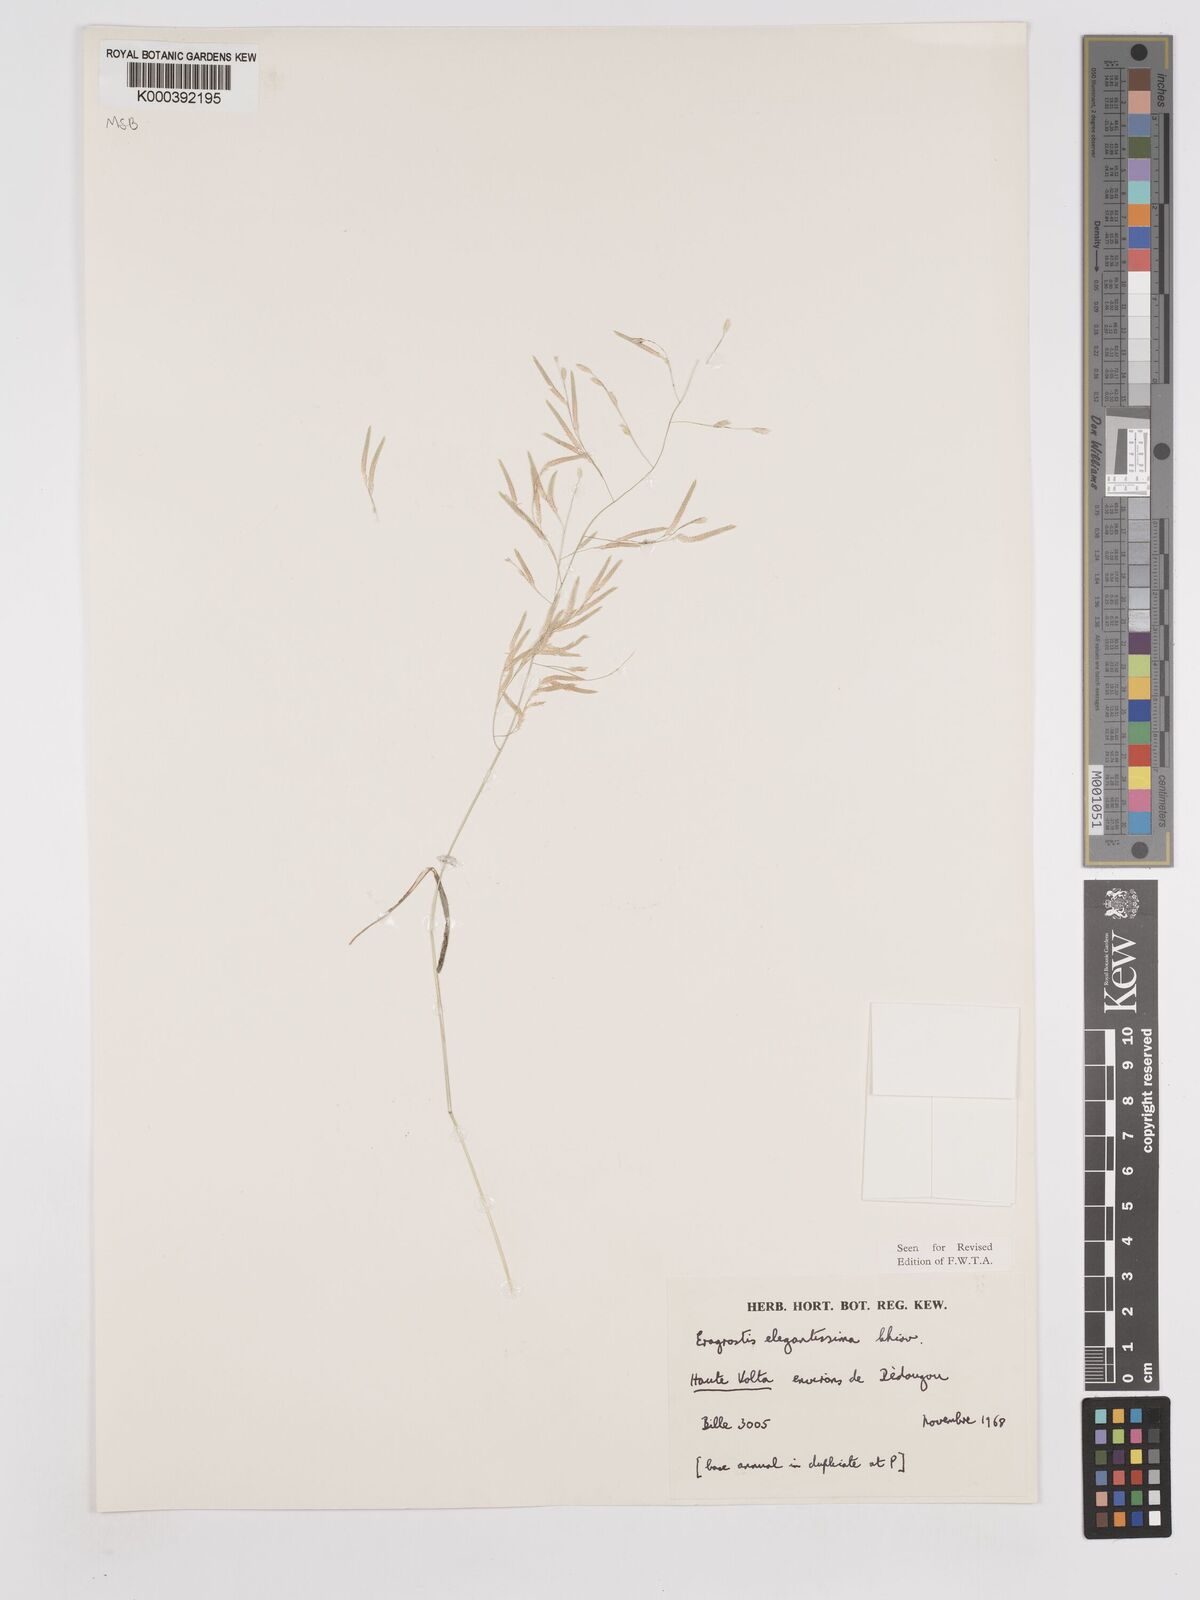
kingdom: Plantae
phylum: Tracheophyta
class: Liliopsida
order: Poales
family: Poaceae
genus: Eragrostis
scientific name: Eragrostis elegantissima
